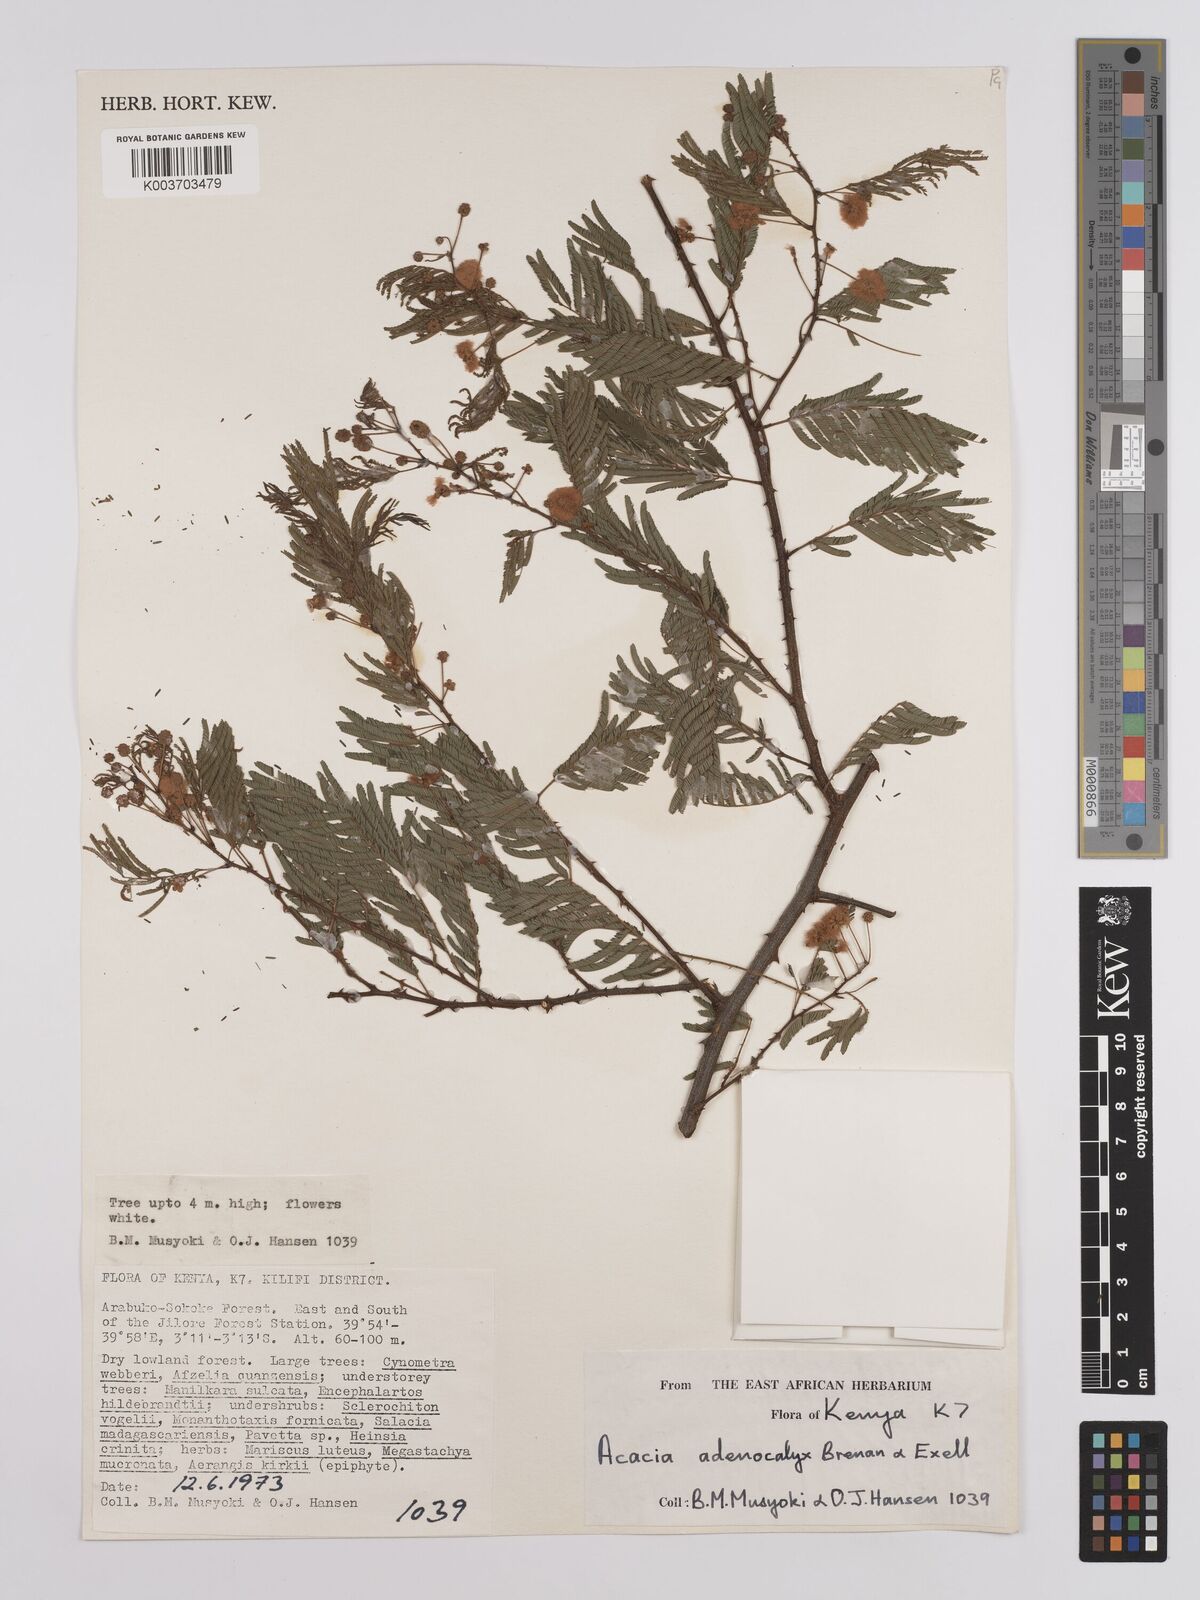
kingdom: Plantae
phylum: Tracheophyta
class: Magnoliopsida
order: Fabales
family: Fabaceae
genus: Senegalia
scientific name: Senegalia adenocalyx
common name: Pfurura
